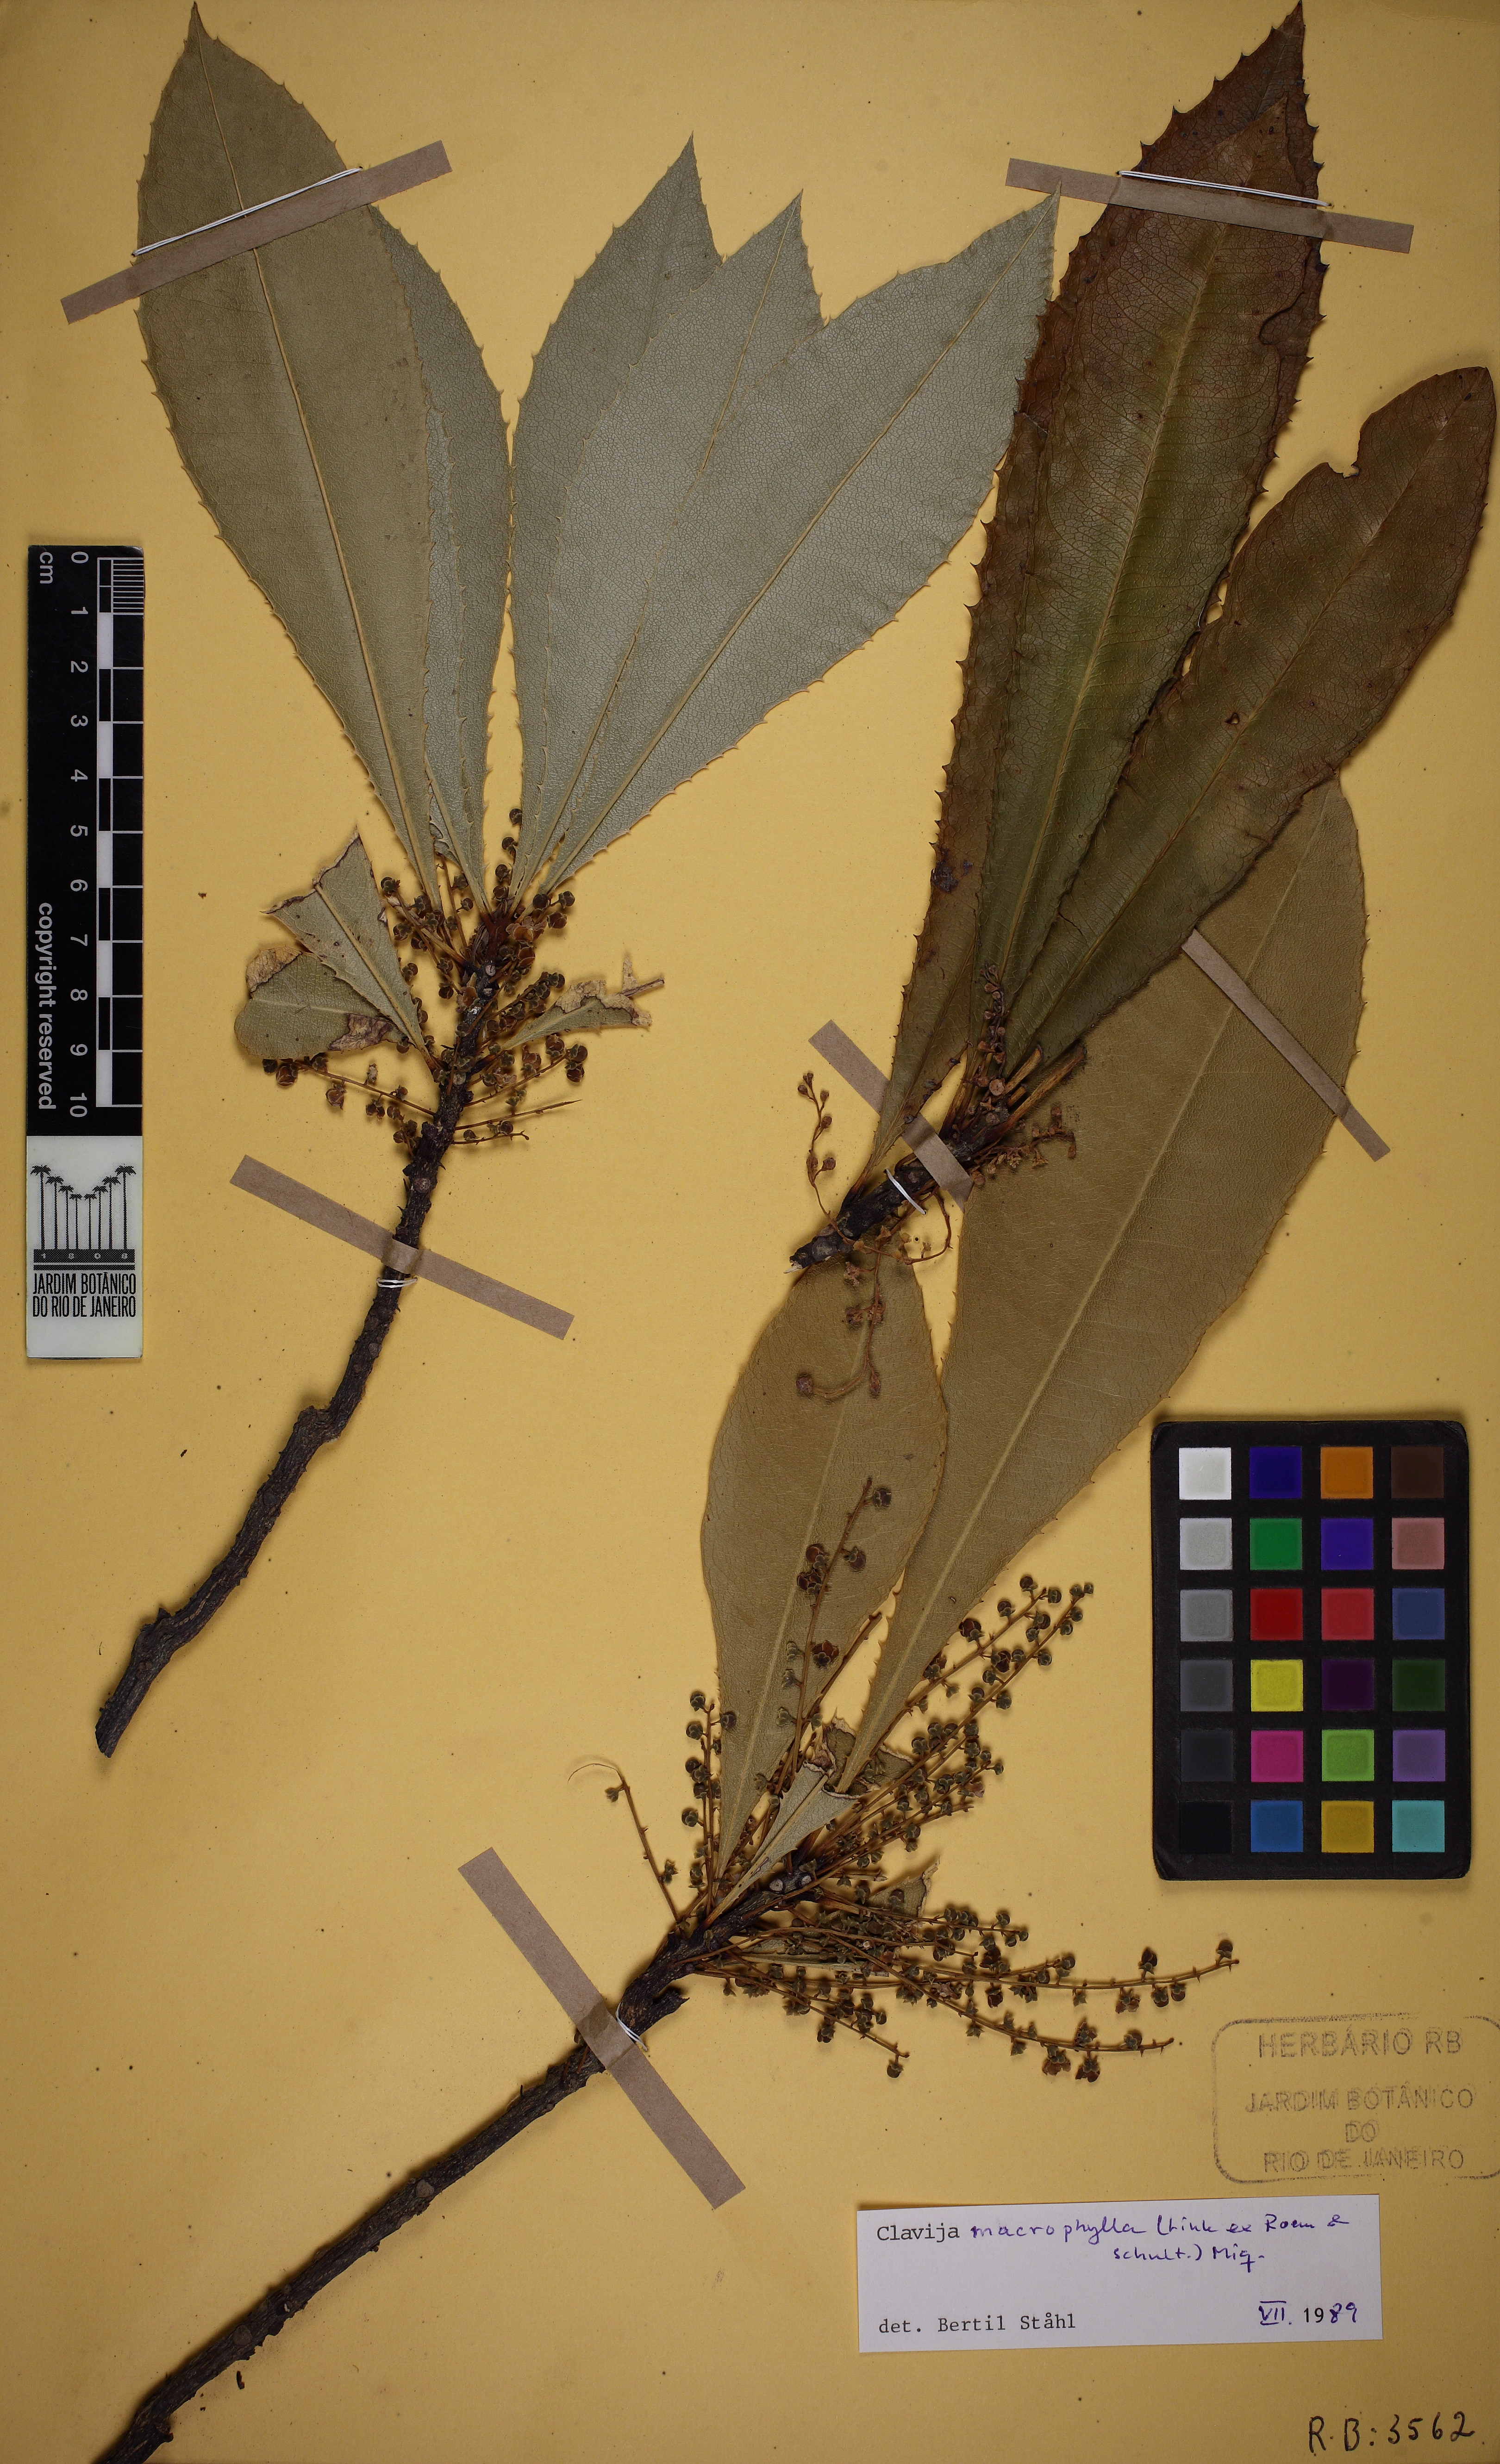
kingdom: Plantae
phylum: Tracheophyta
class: Magnoliopsida
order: Ericales
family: Primulaceae
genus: Clavija
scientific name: Clavija lancifolia
